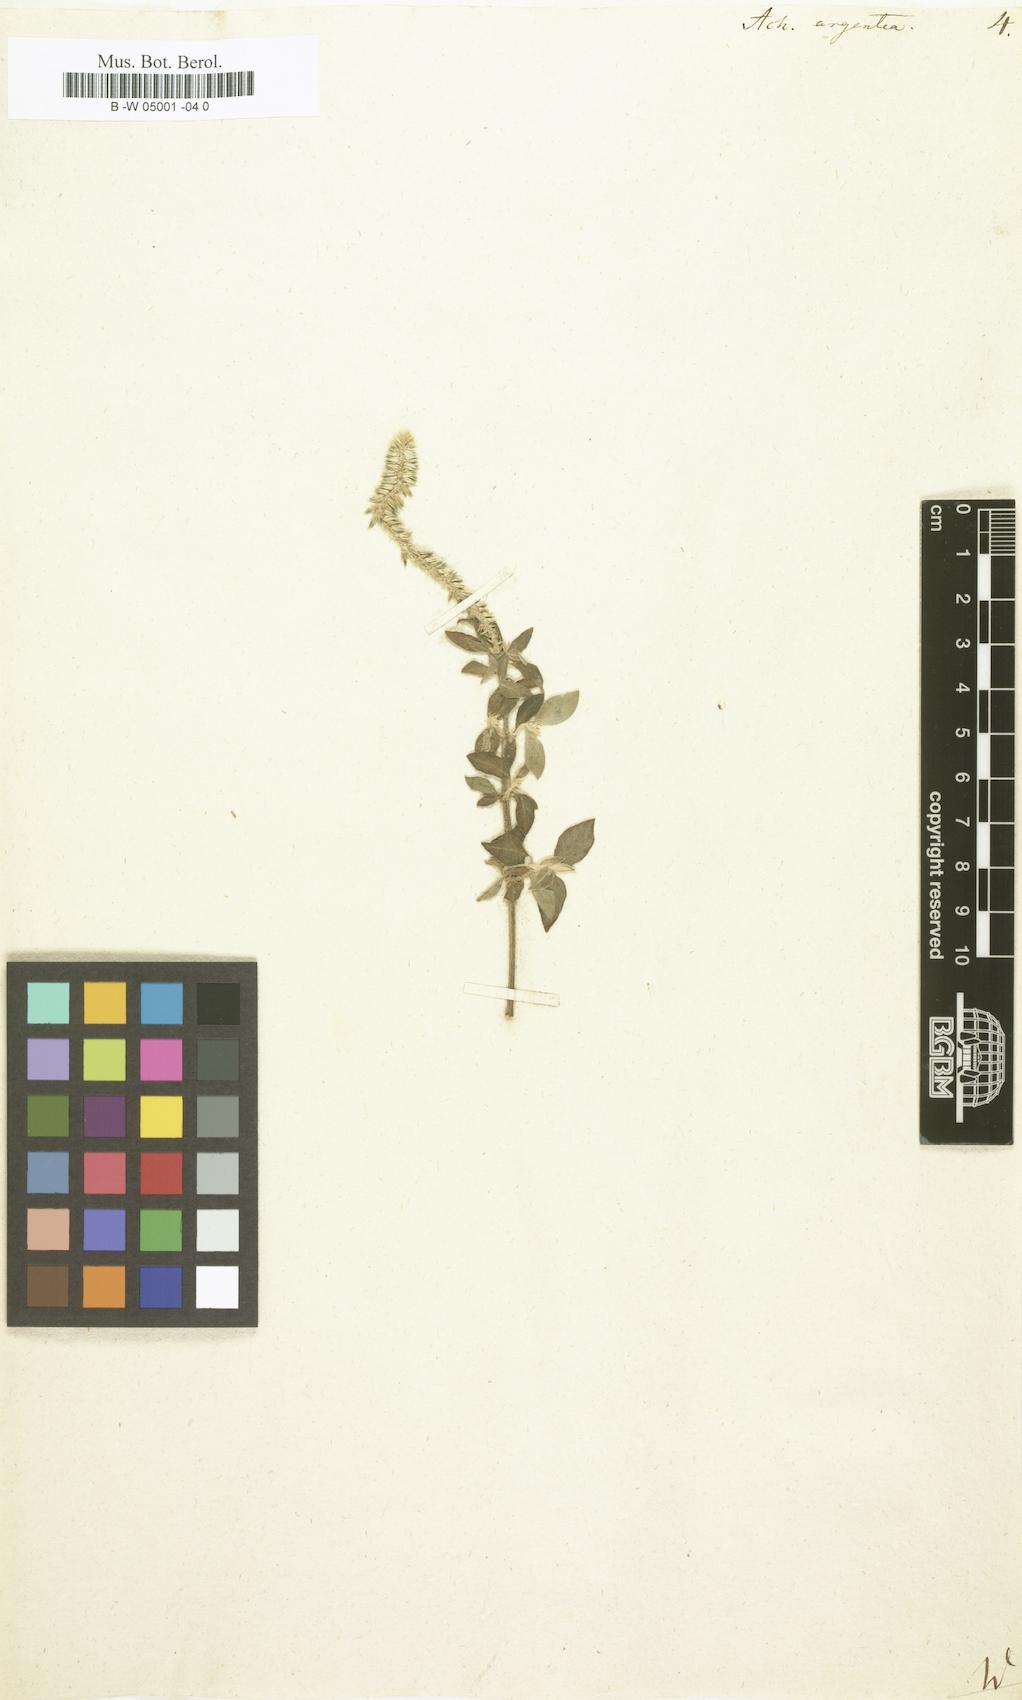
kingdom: Plantae
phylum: Tracheophyta
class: Magnoliopsida
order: Caryophyllales
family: Amaranthaceae
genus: Achyranthes
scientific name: Achyranthes sicula
